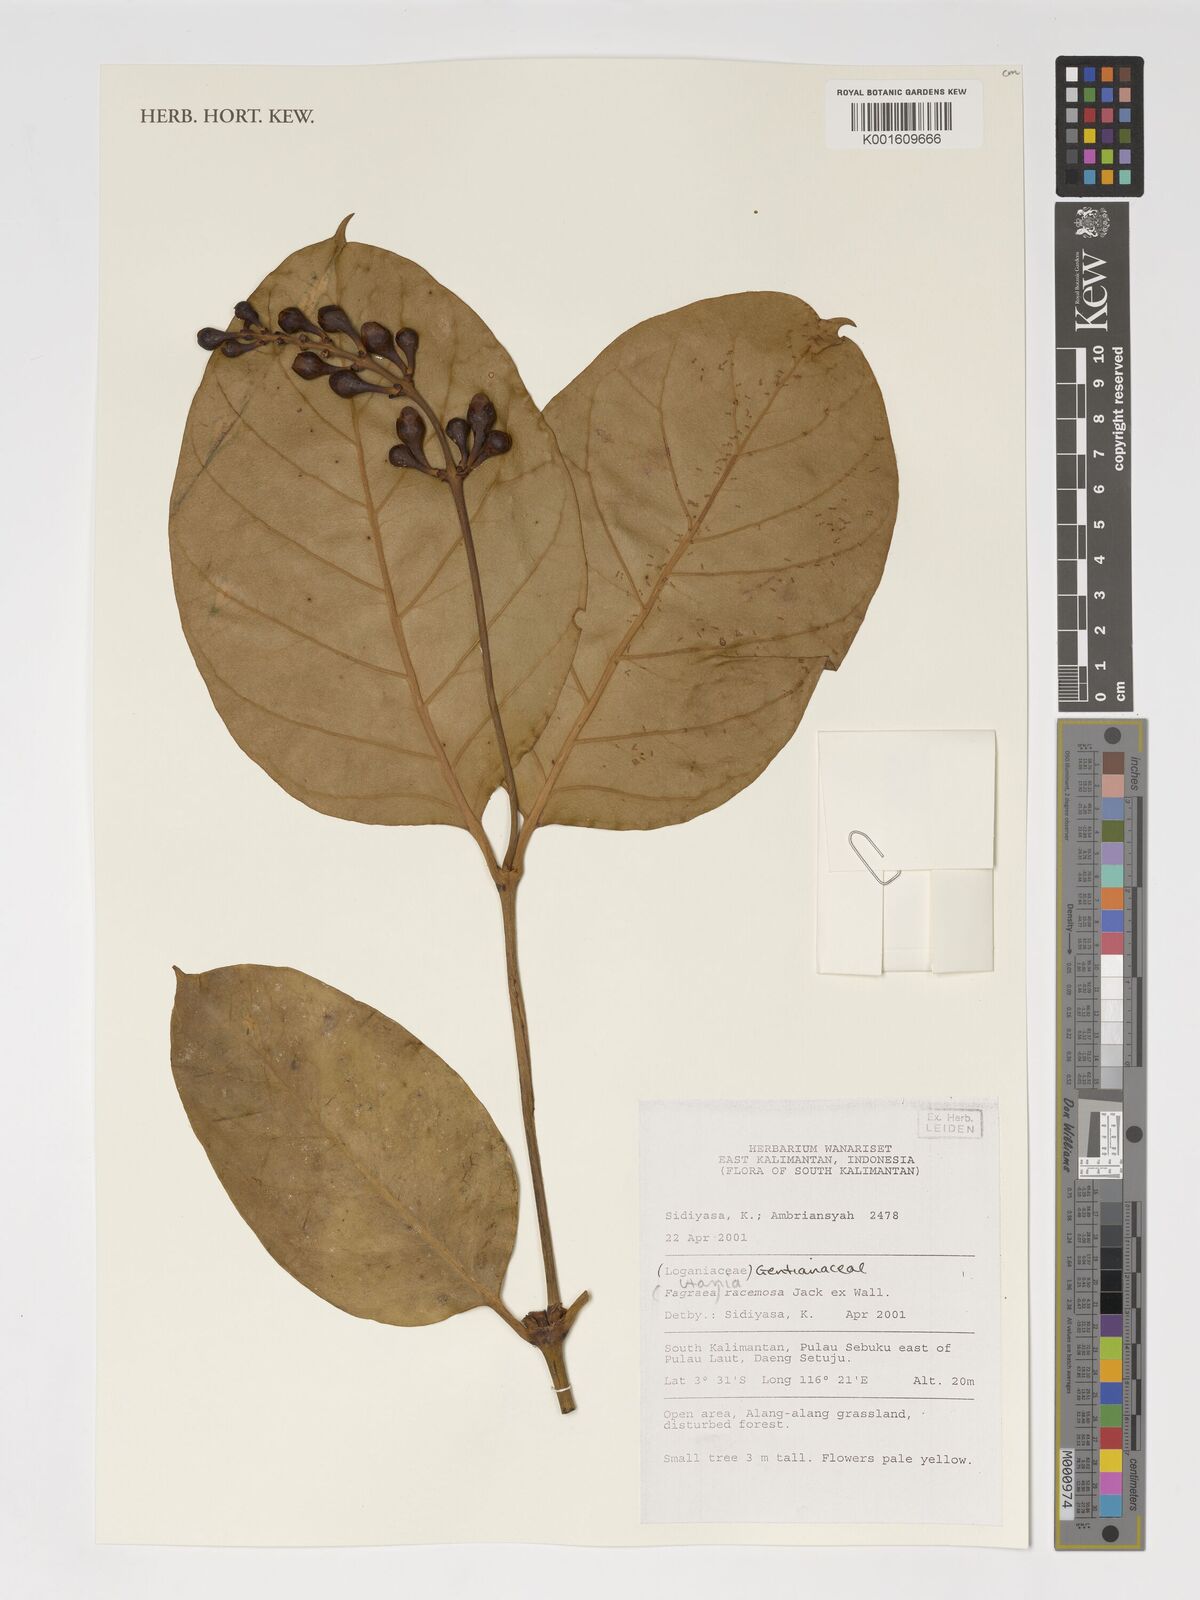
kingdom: Plantae
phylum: Tracheophyta
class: Magnoliopsida
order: Gentianales
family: Gentianaceae
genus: Utania
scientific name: Utania racemosa
